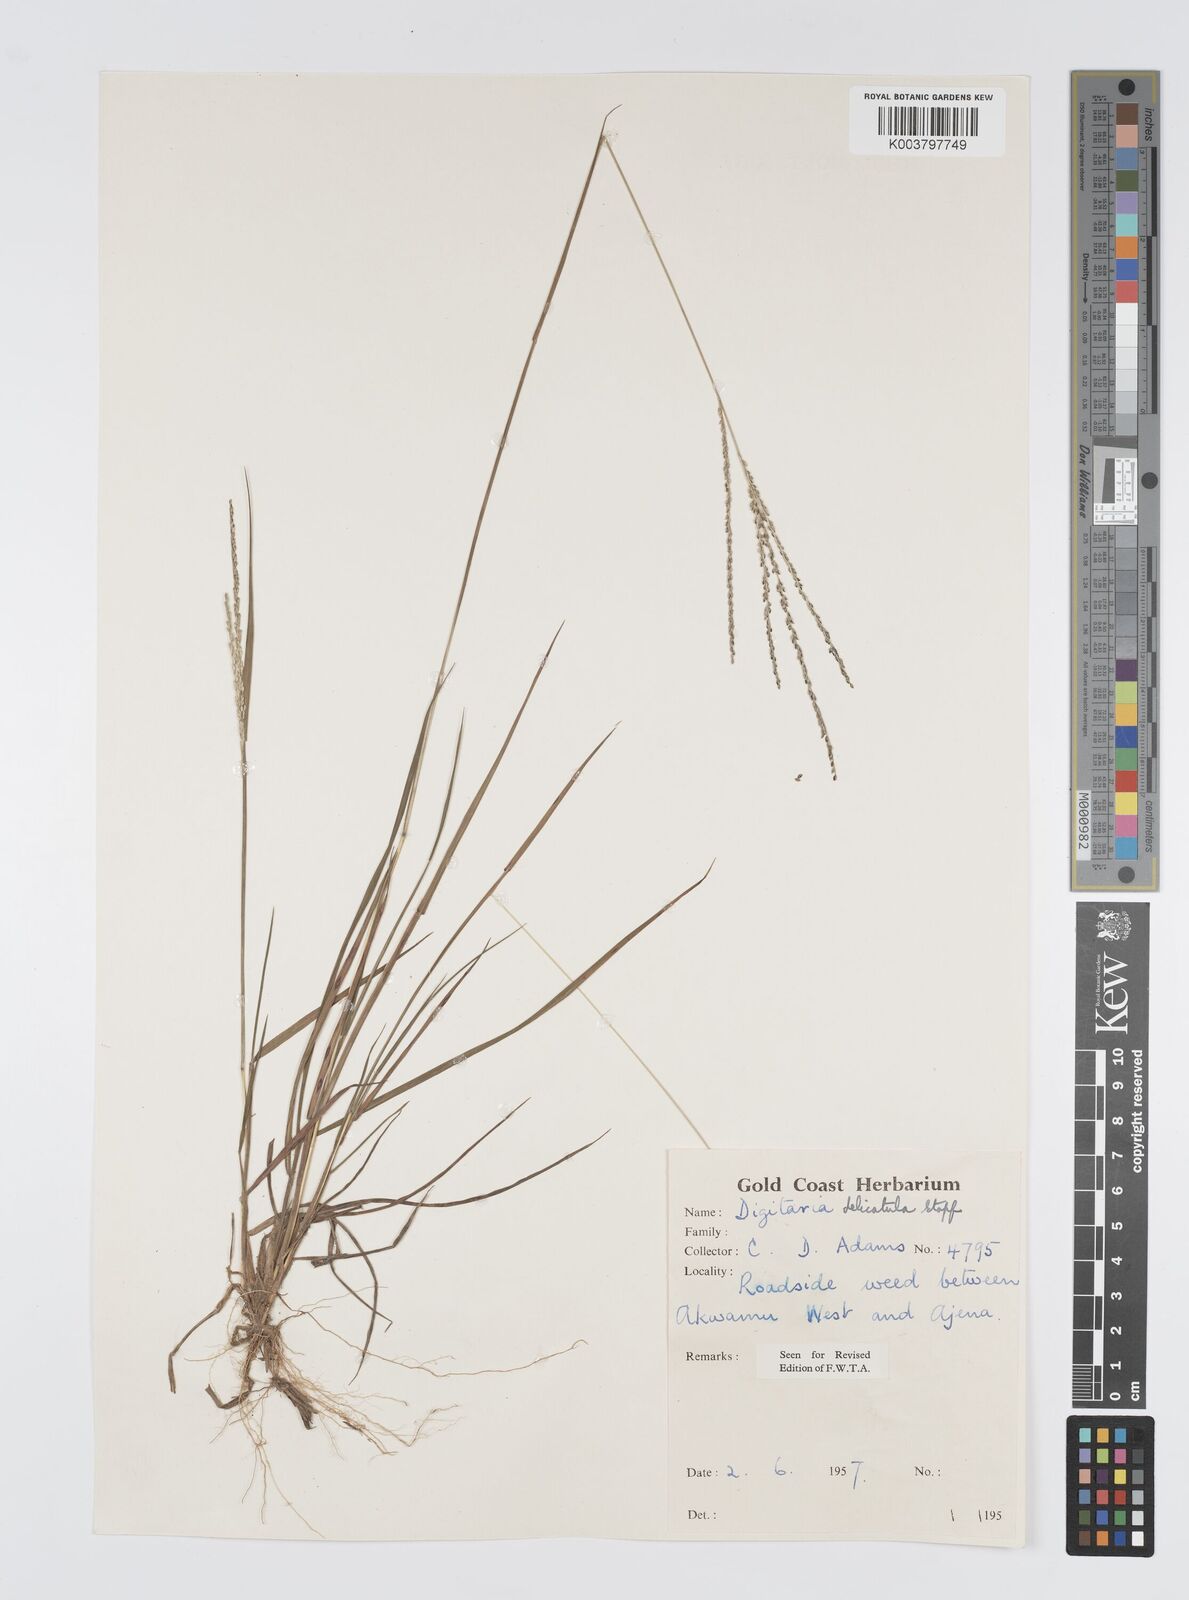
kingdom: Plantae
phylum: Tracheophyta
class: Liliopsida
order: Poales
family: Poaceae
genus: Digitaria
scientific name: Digitaria delicatula
